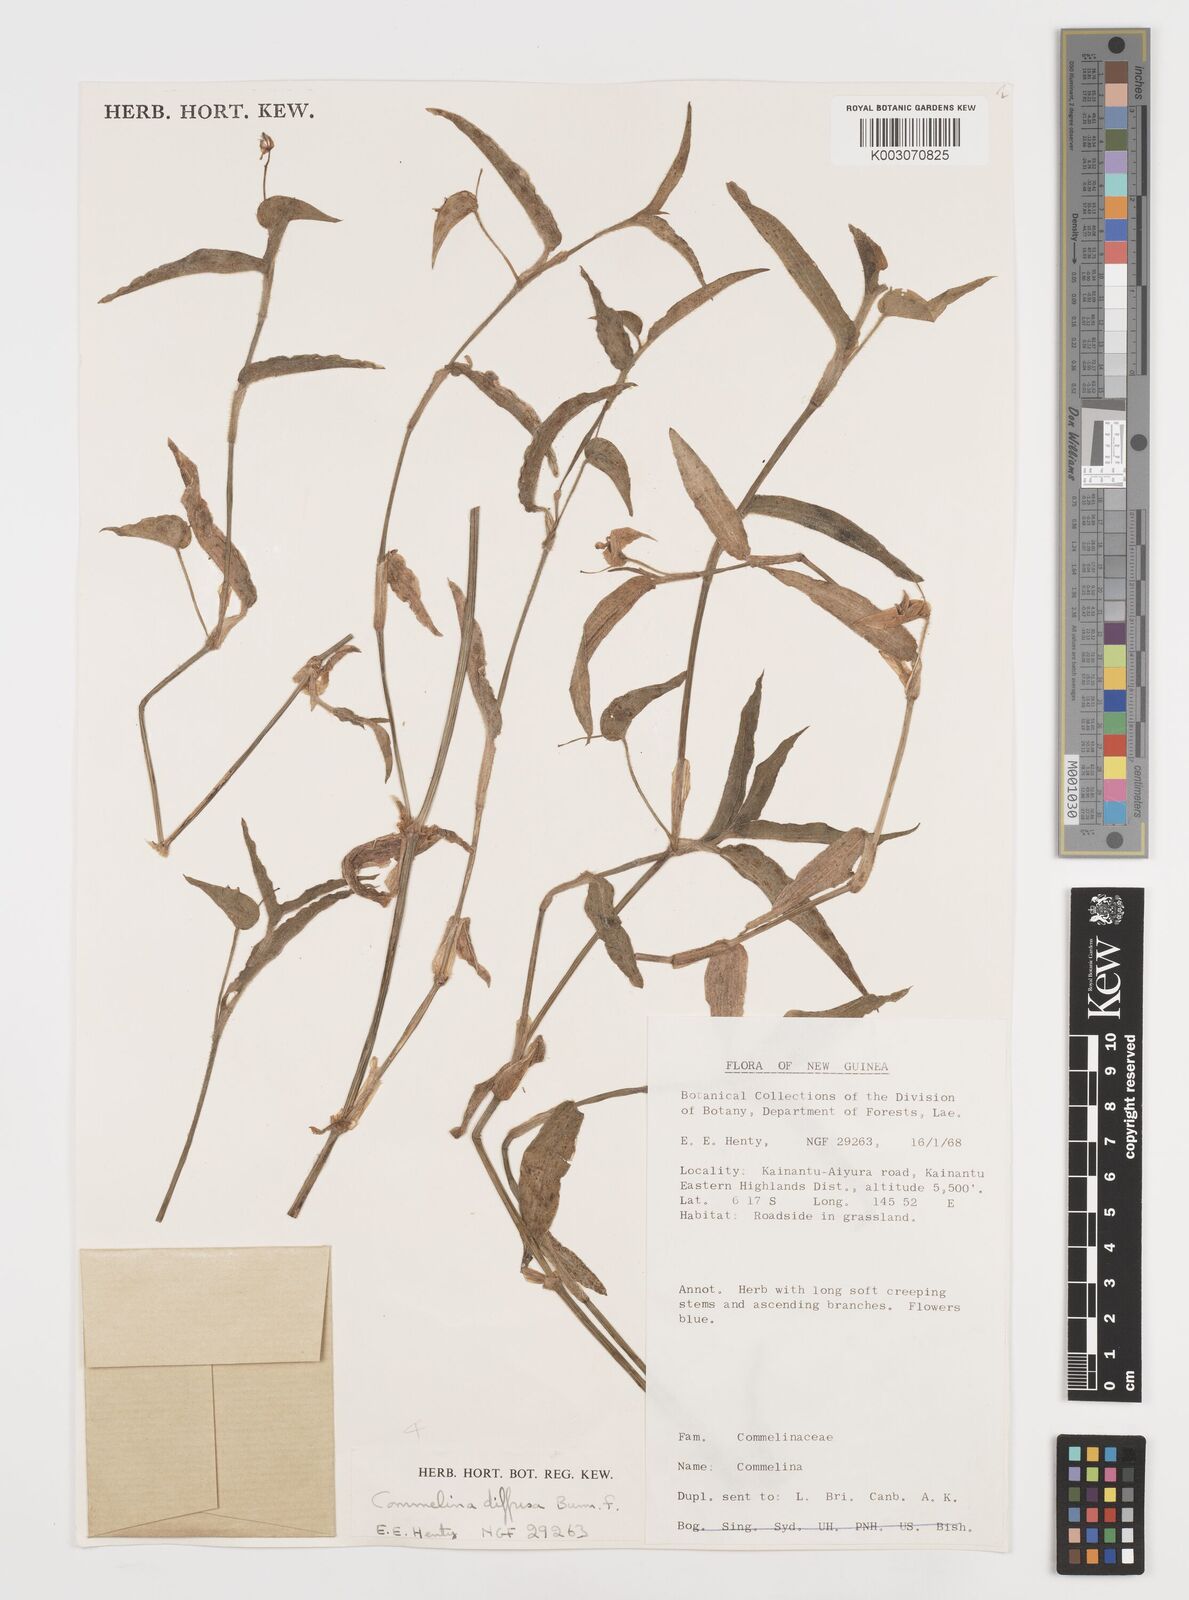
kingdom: Plantae
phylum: Tracheophyta
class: Liliopsida
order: Commelinales
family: Commelinaceae
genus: Commelina
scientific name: Commelina diffusa
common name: Climbing dayflower
